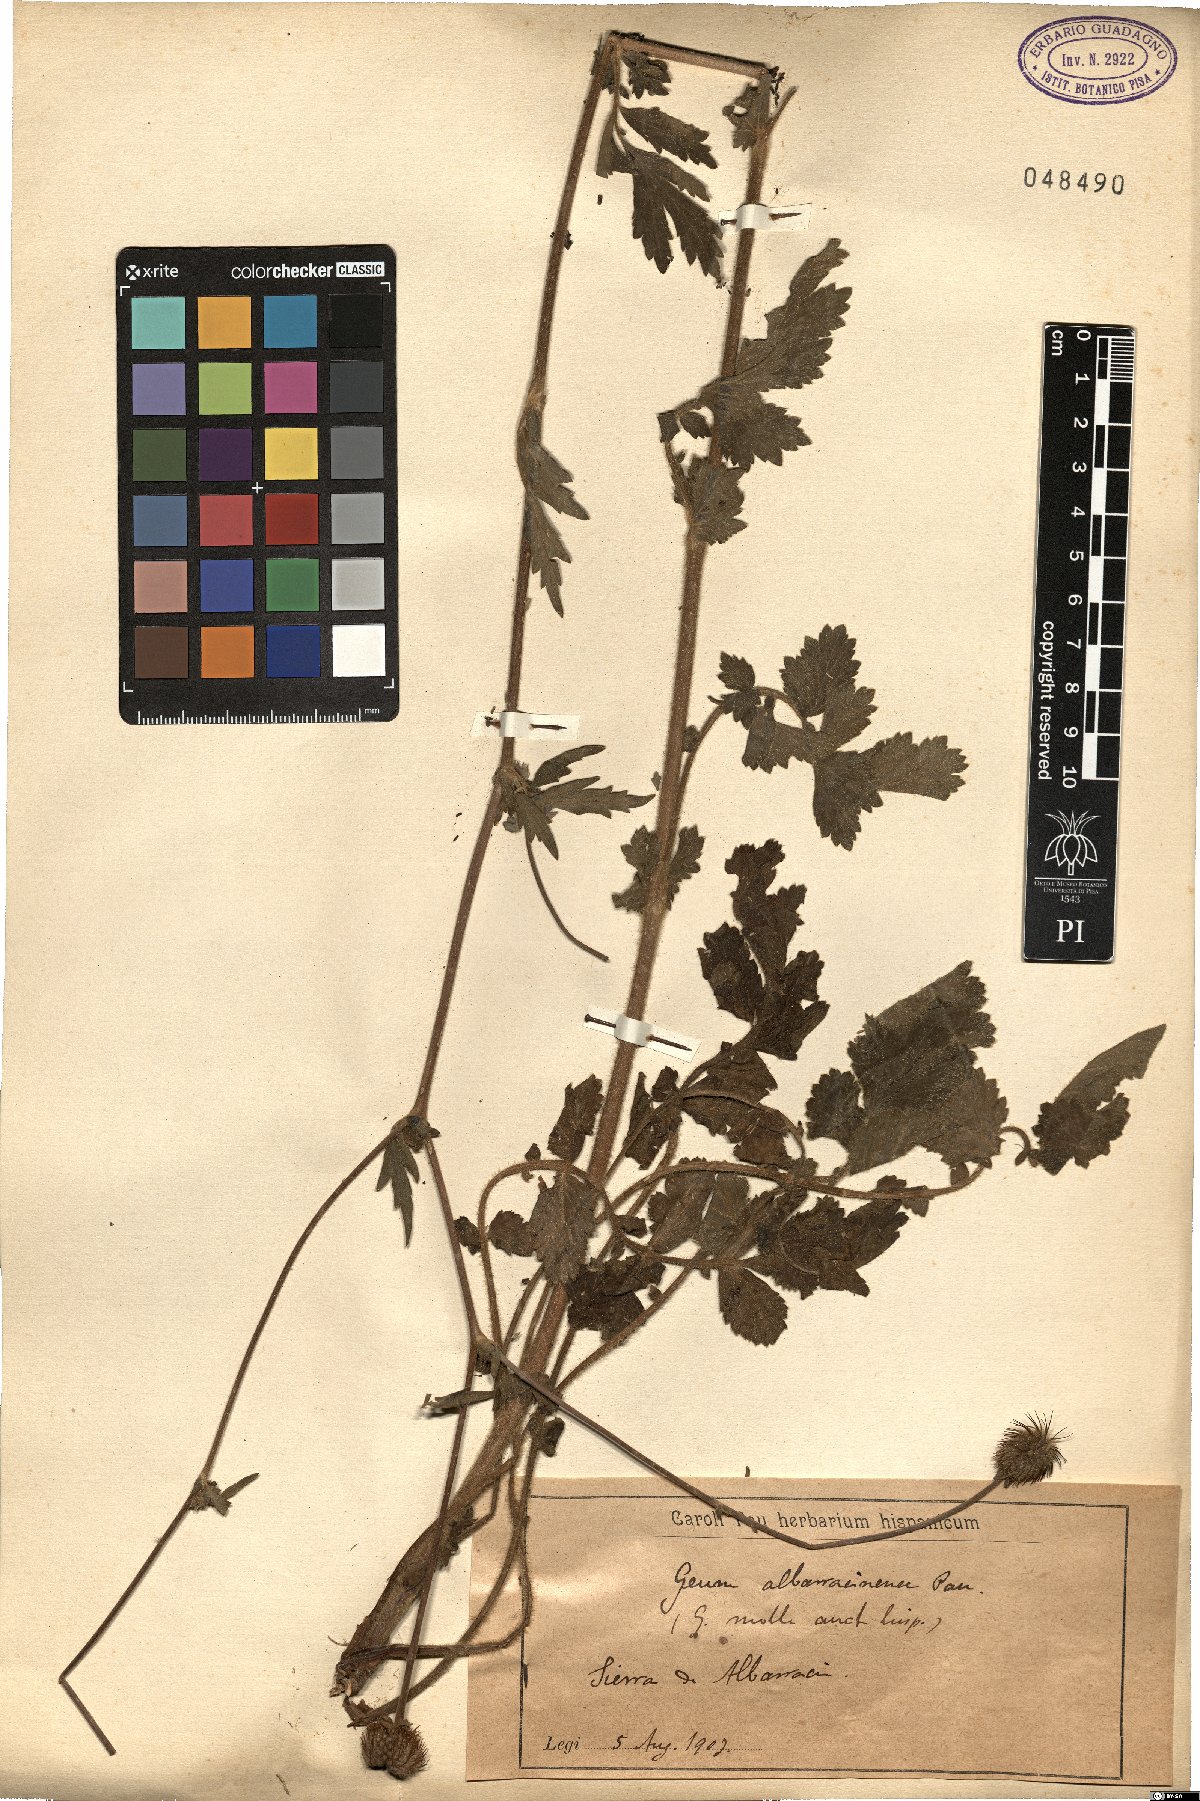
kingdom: Plantae
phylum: Tracheophyta
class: Magnoliopsida
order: Rosales
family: Rosaceae
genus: Geum
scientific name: Geum hispidum
